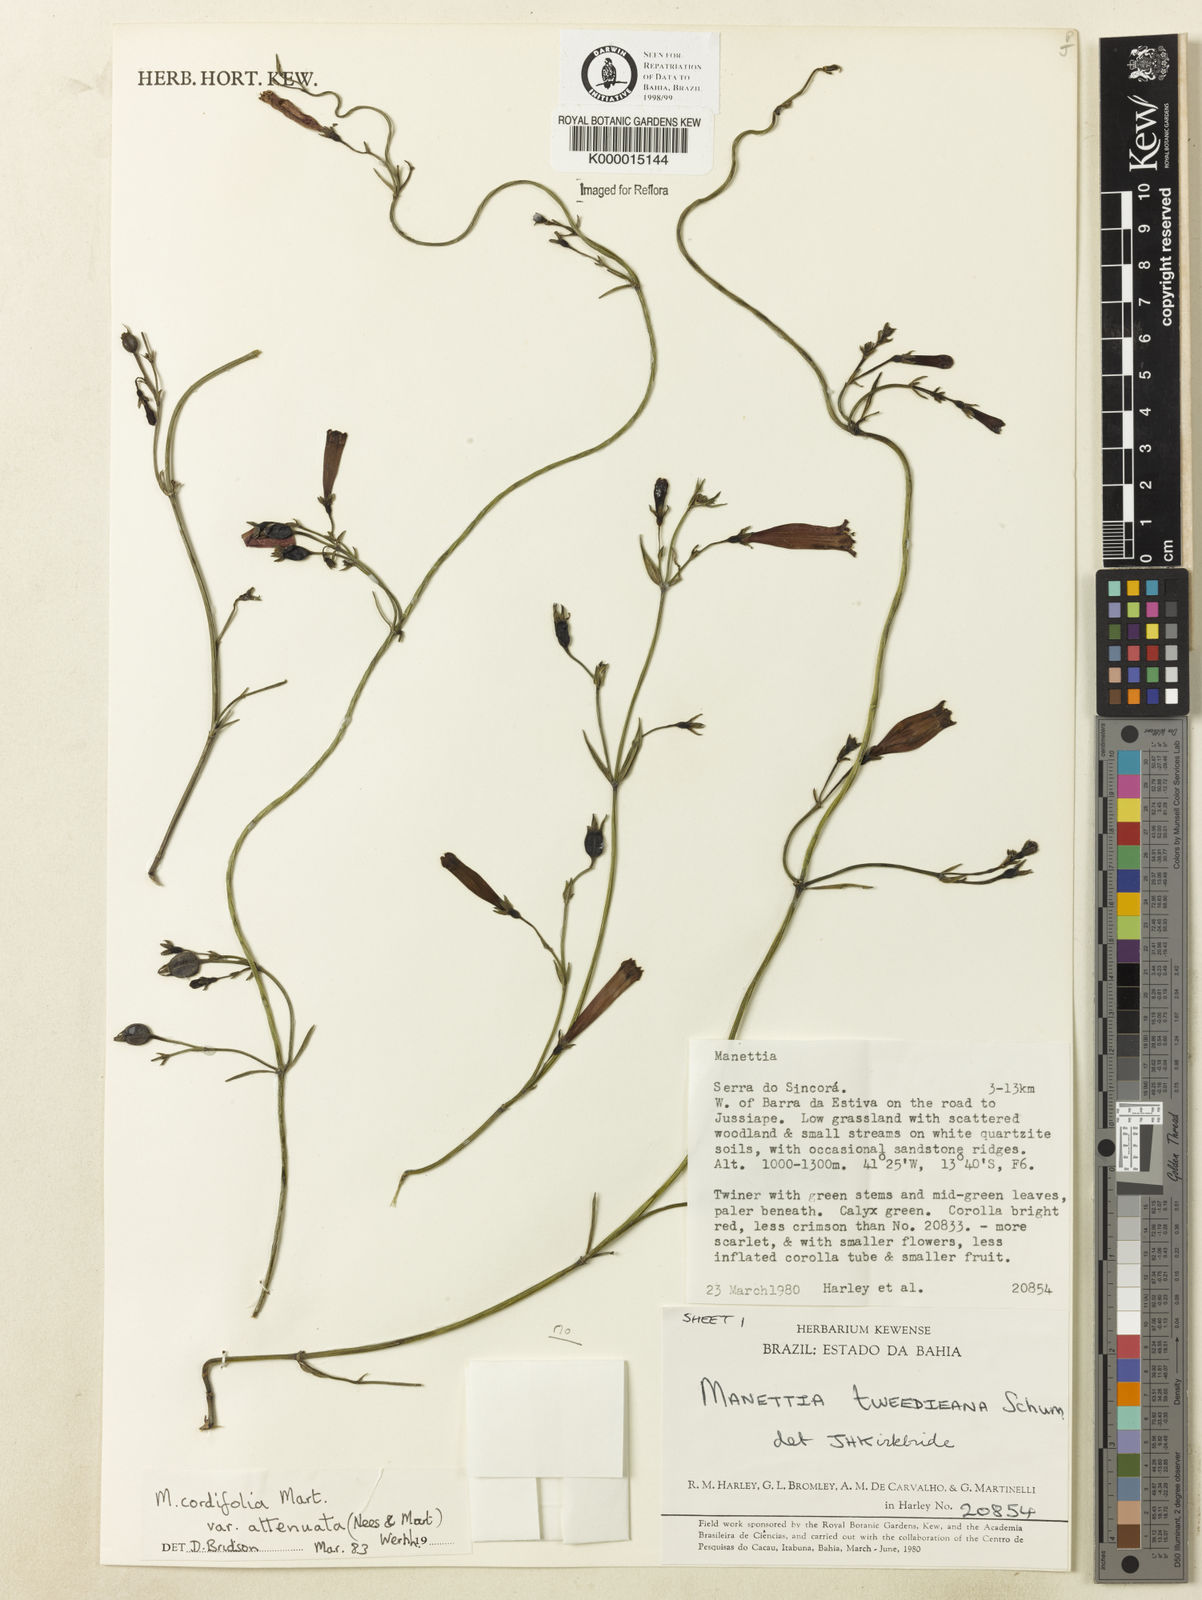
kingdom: Plantae
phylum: Tracheophyta
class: Magnoliopsida
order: Gentianales
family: Rubiaceae
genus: Manettia
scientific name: Manettia cordifolia
